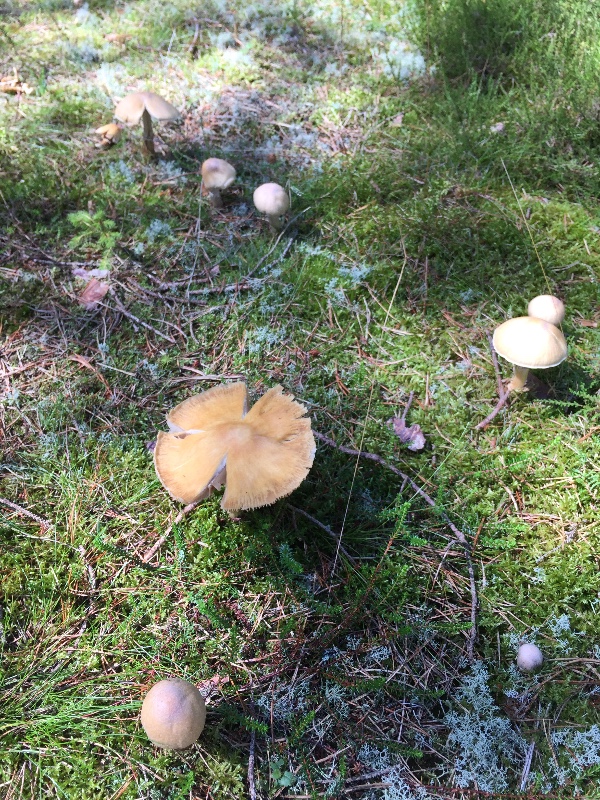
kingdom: Fungi
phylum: Basidiomycota
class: Agaricomycetes
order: Agaricales
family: Cortinariaceae
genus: Cortinarius
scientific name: Cortinarius caperatus
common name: klidhat
